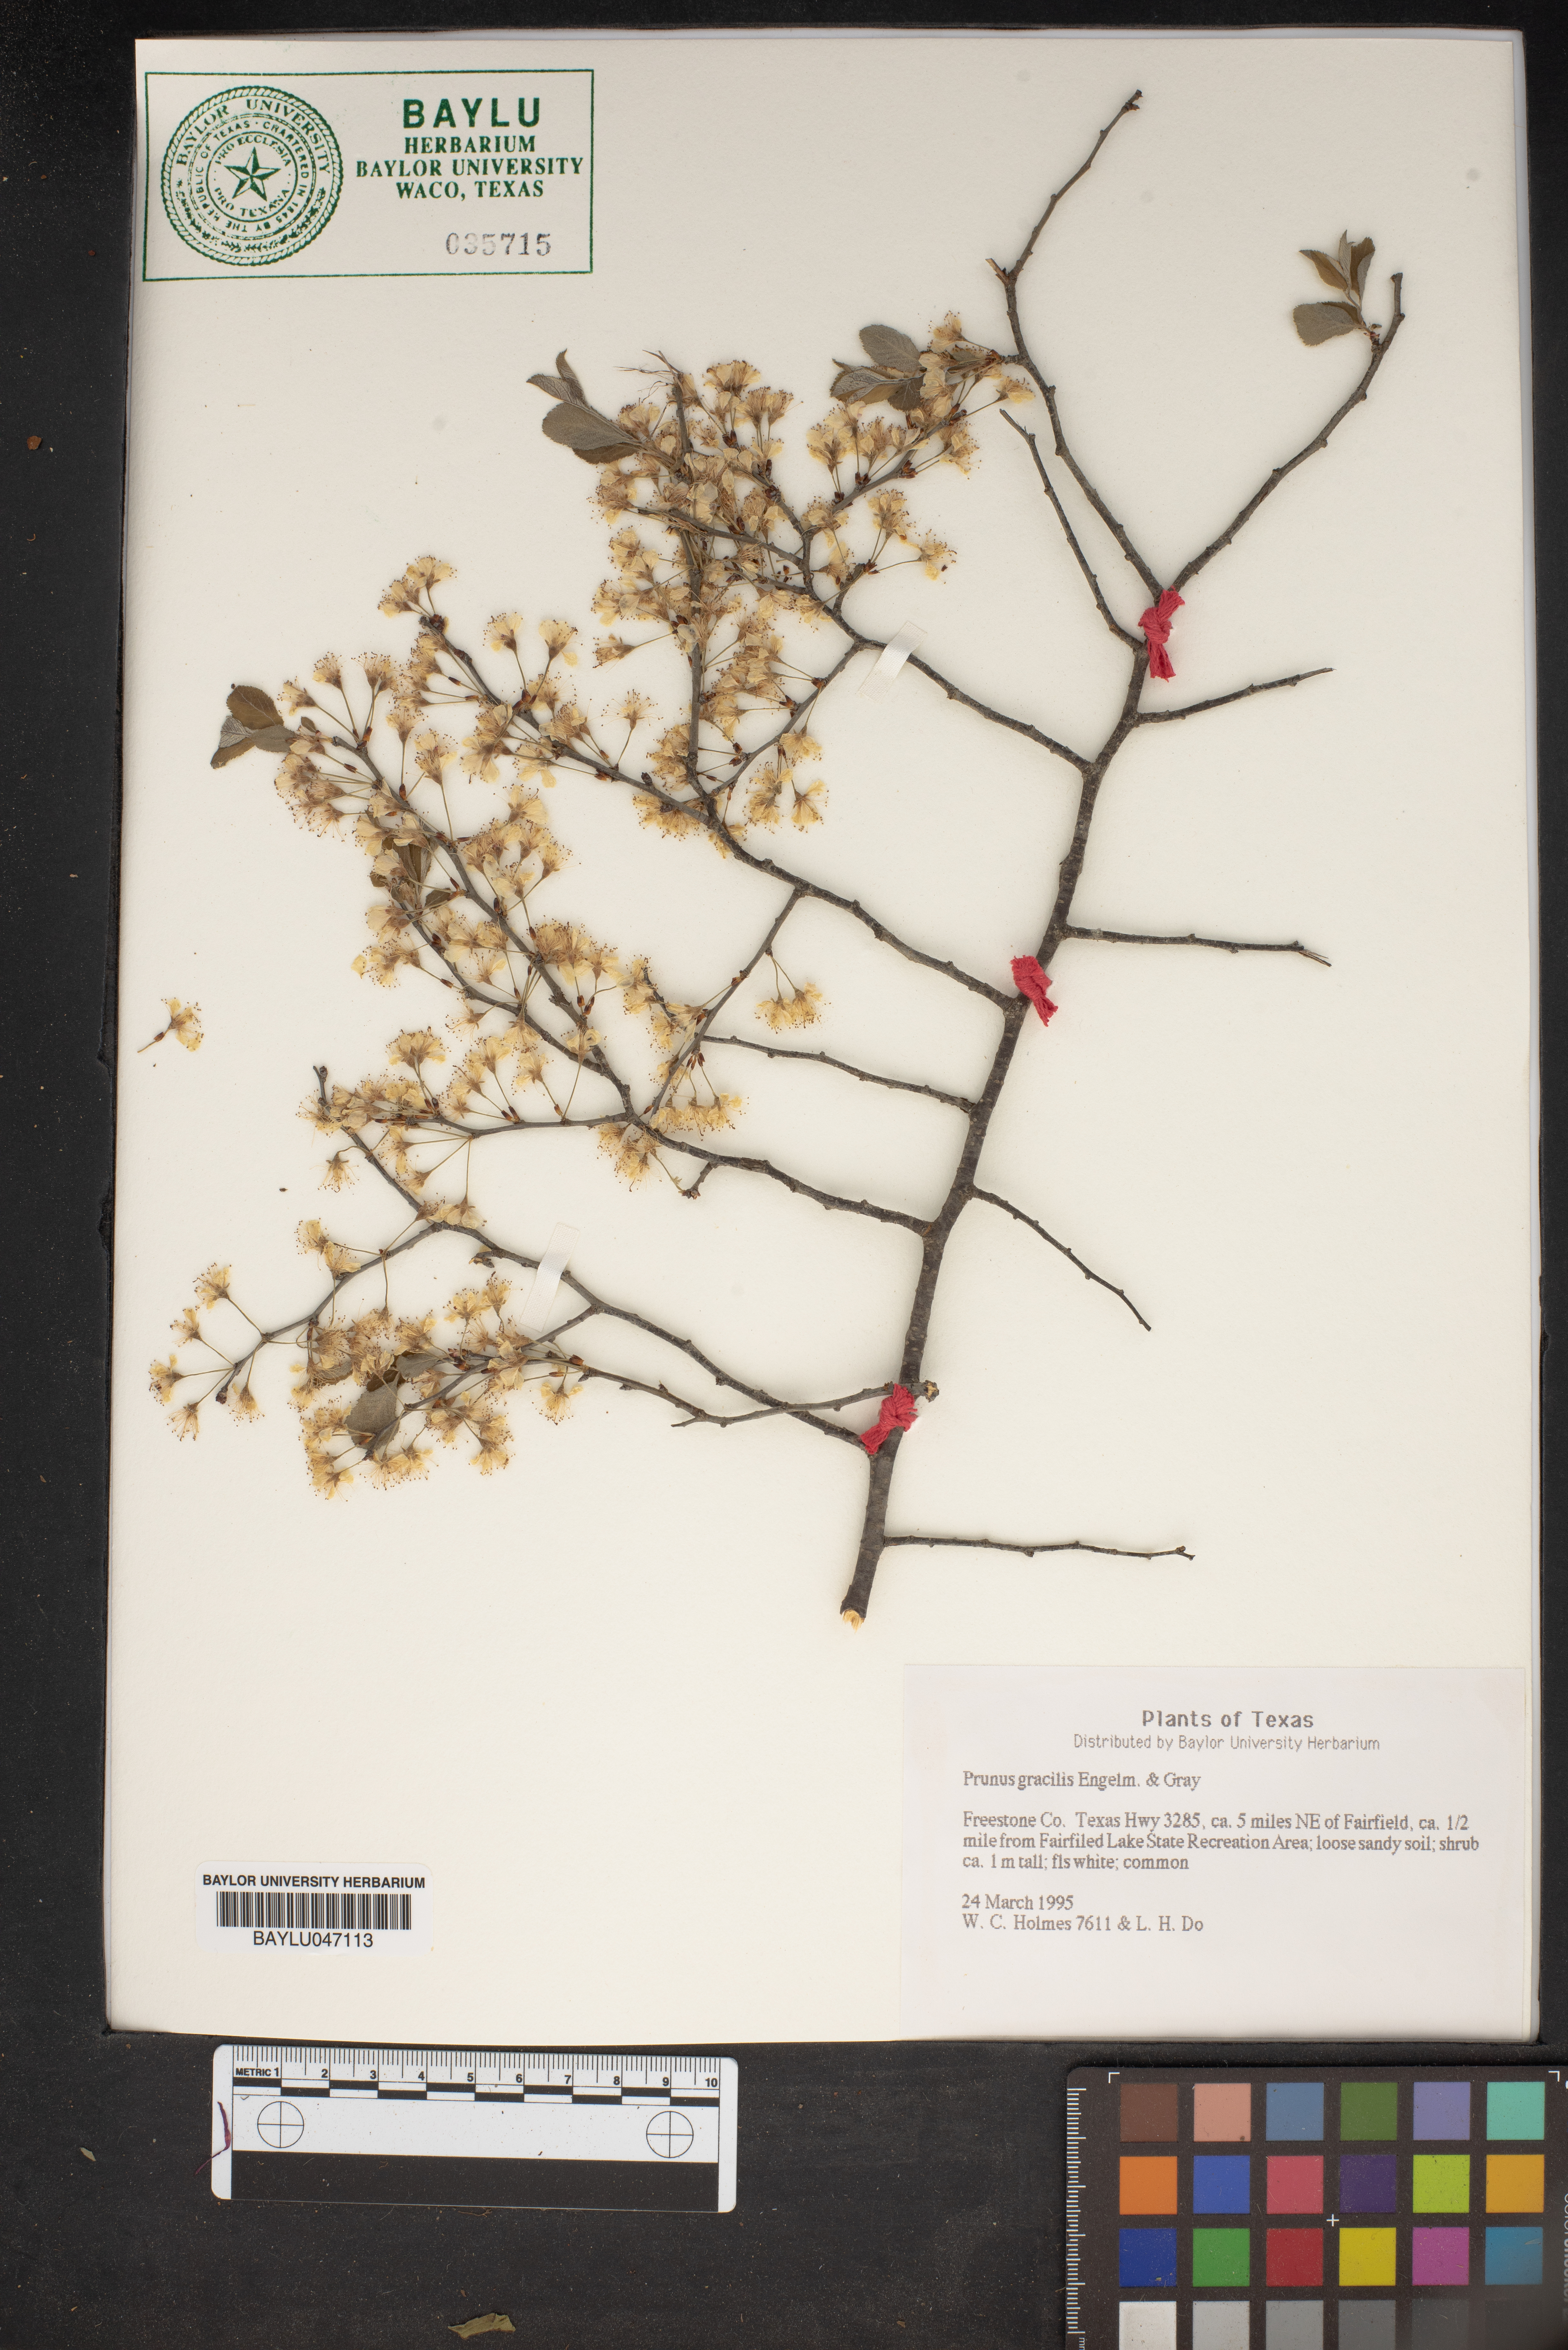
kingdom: Plantae
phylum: Tracheophyta
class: Magnoliopsida
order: Rosales
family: Rosaceae
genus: Prunus
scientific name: Prunus gracilis
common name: Oklahoma plum
